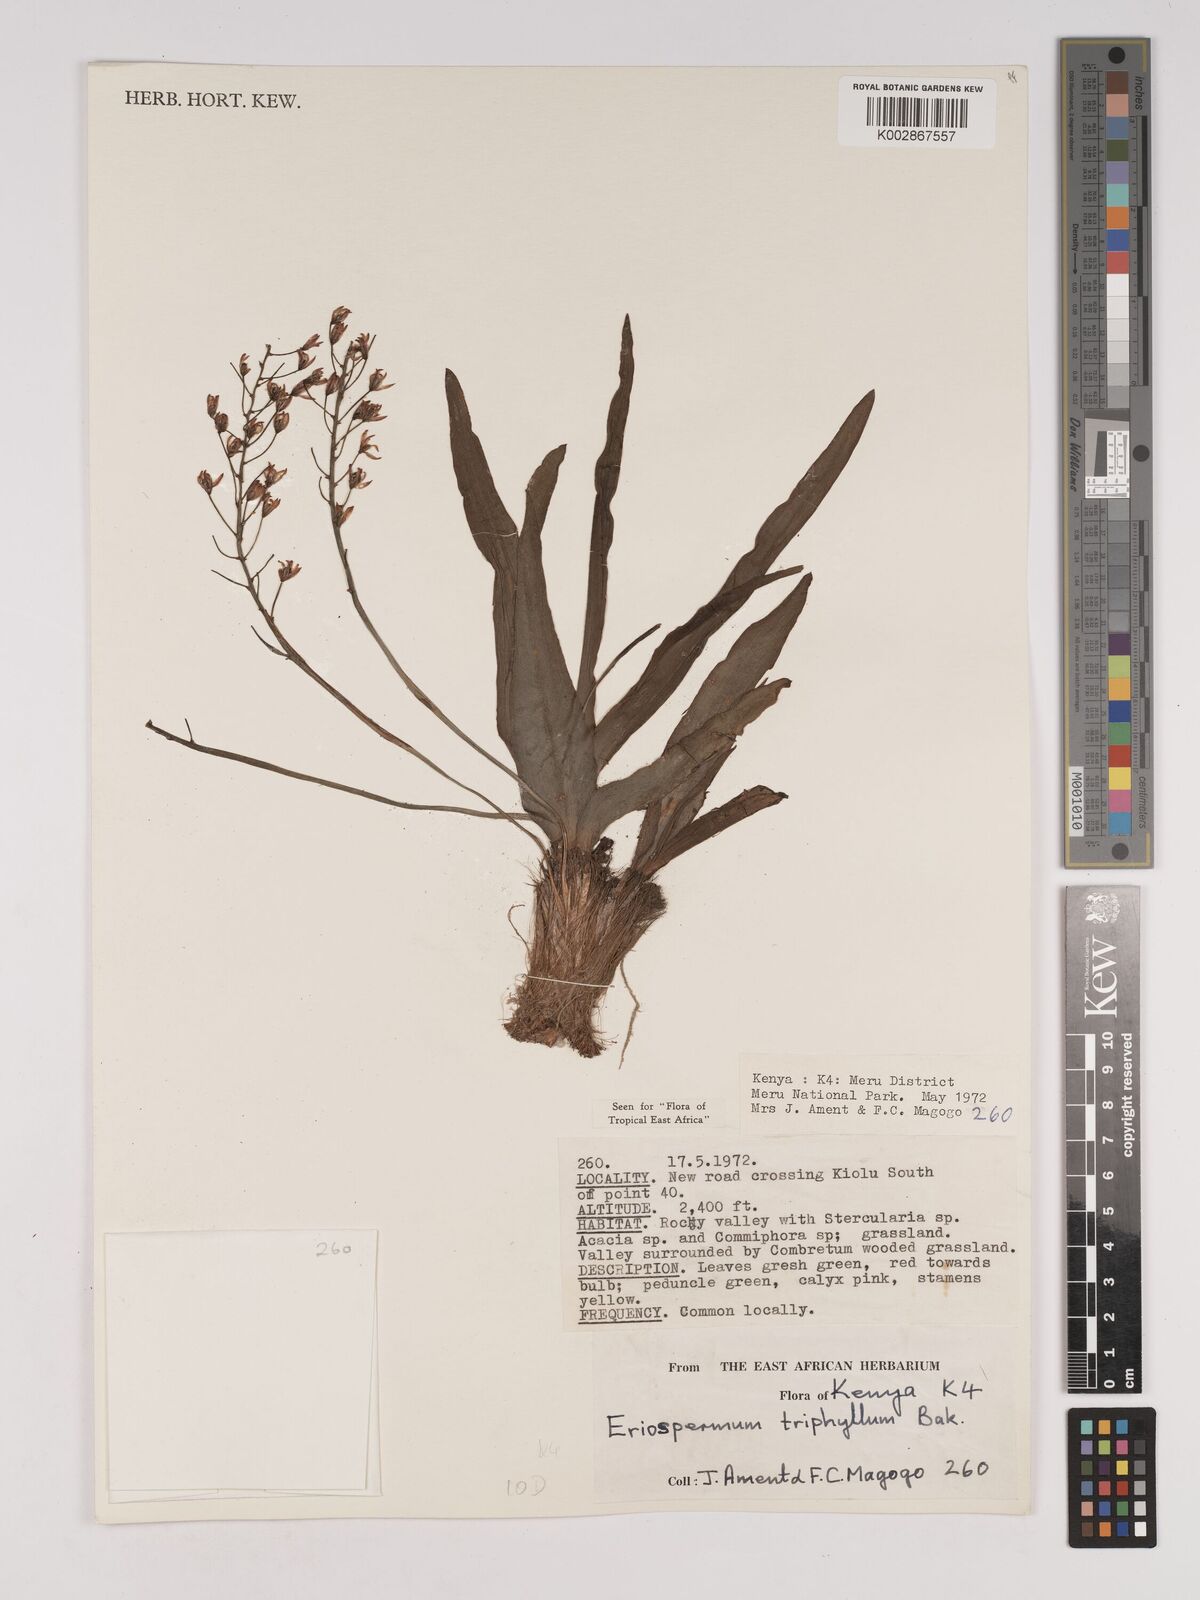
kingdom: Plantae
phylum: Tracheophyta
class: Liliopsida
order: Asparagales
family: Asparagaceae
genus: Eriospermum
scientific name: Eriospermum triphyllum
